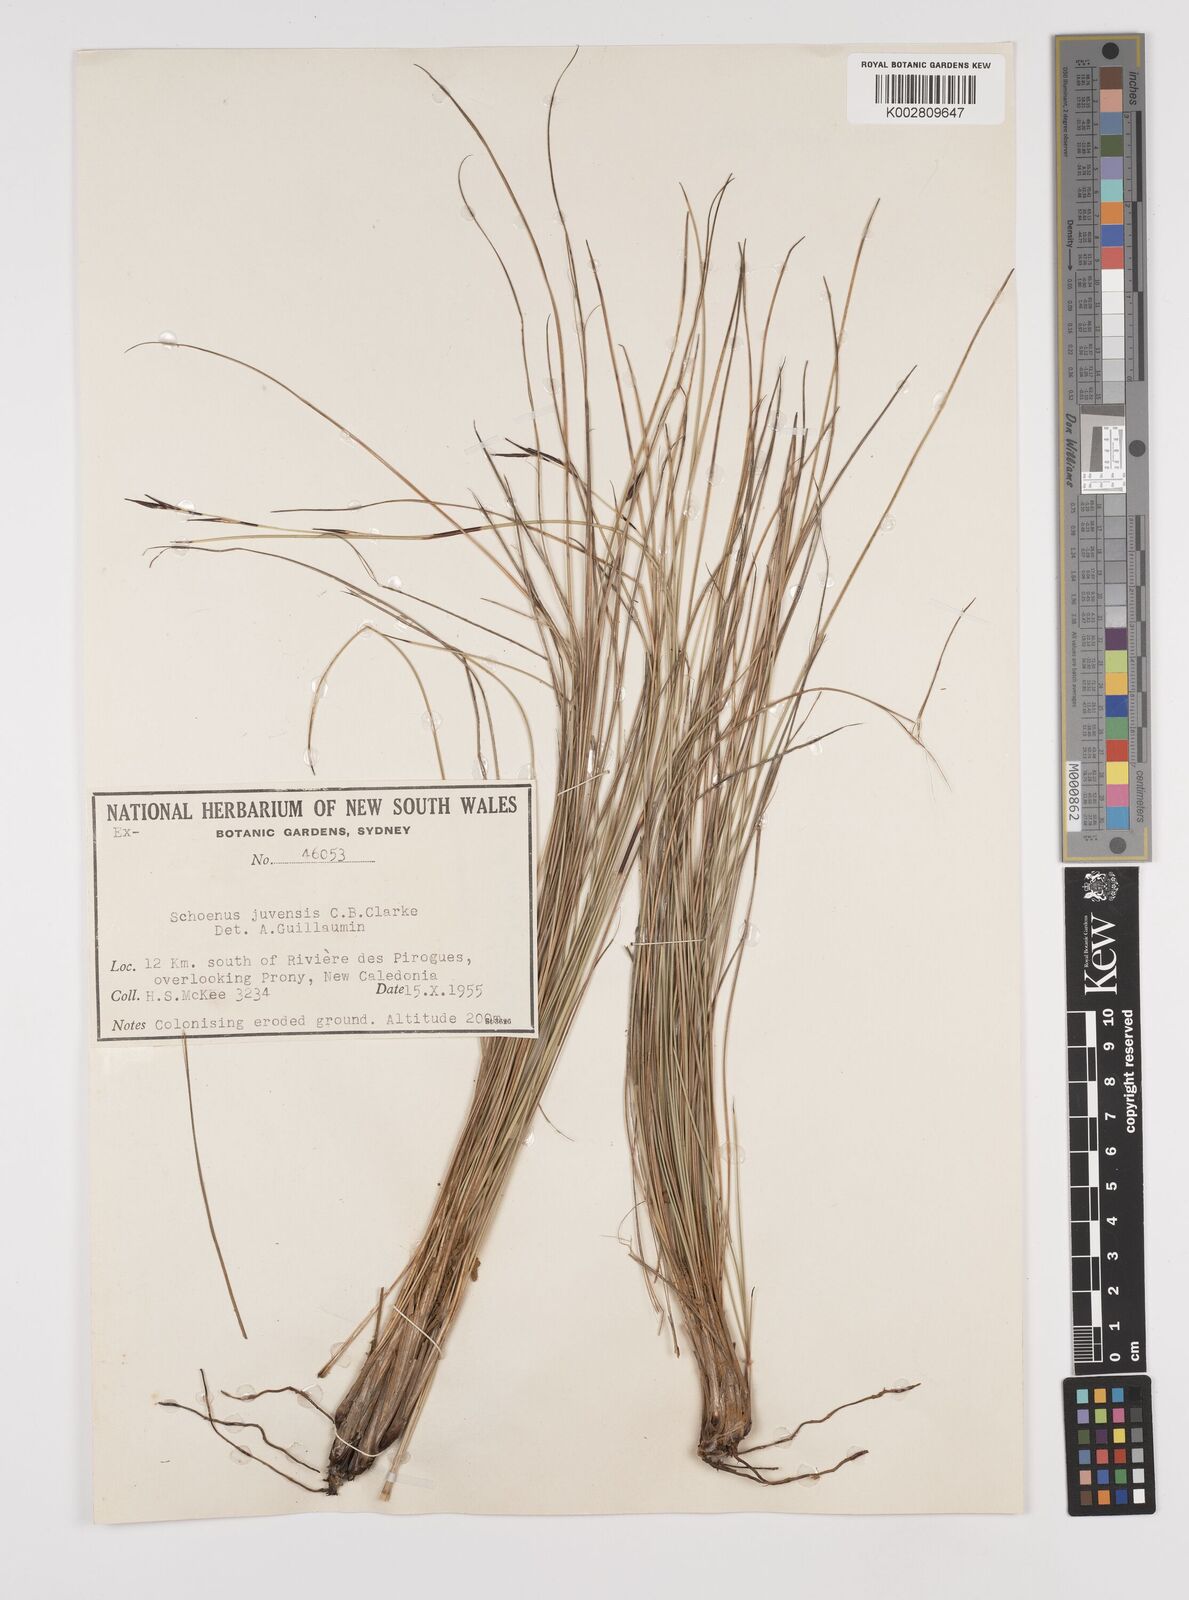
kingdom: Plantae
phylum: Tracheophyta
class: Liliopsida
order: Poales
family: Cyperaceae
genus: Schoenus
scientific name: Schoenus neocaledonicus
